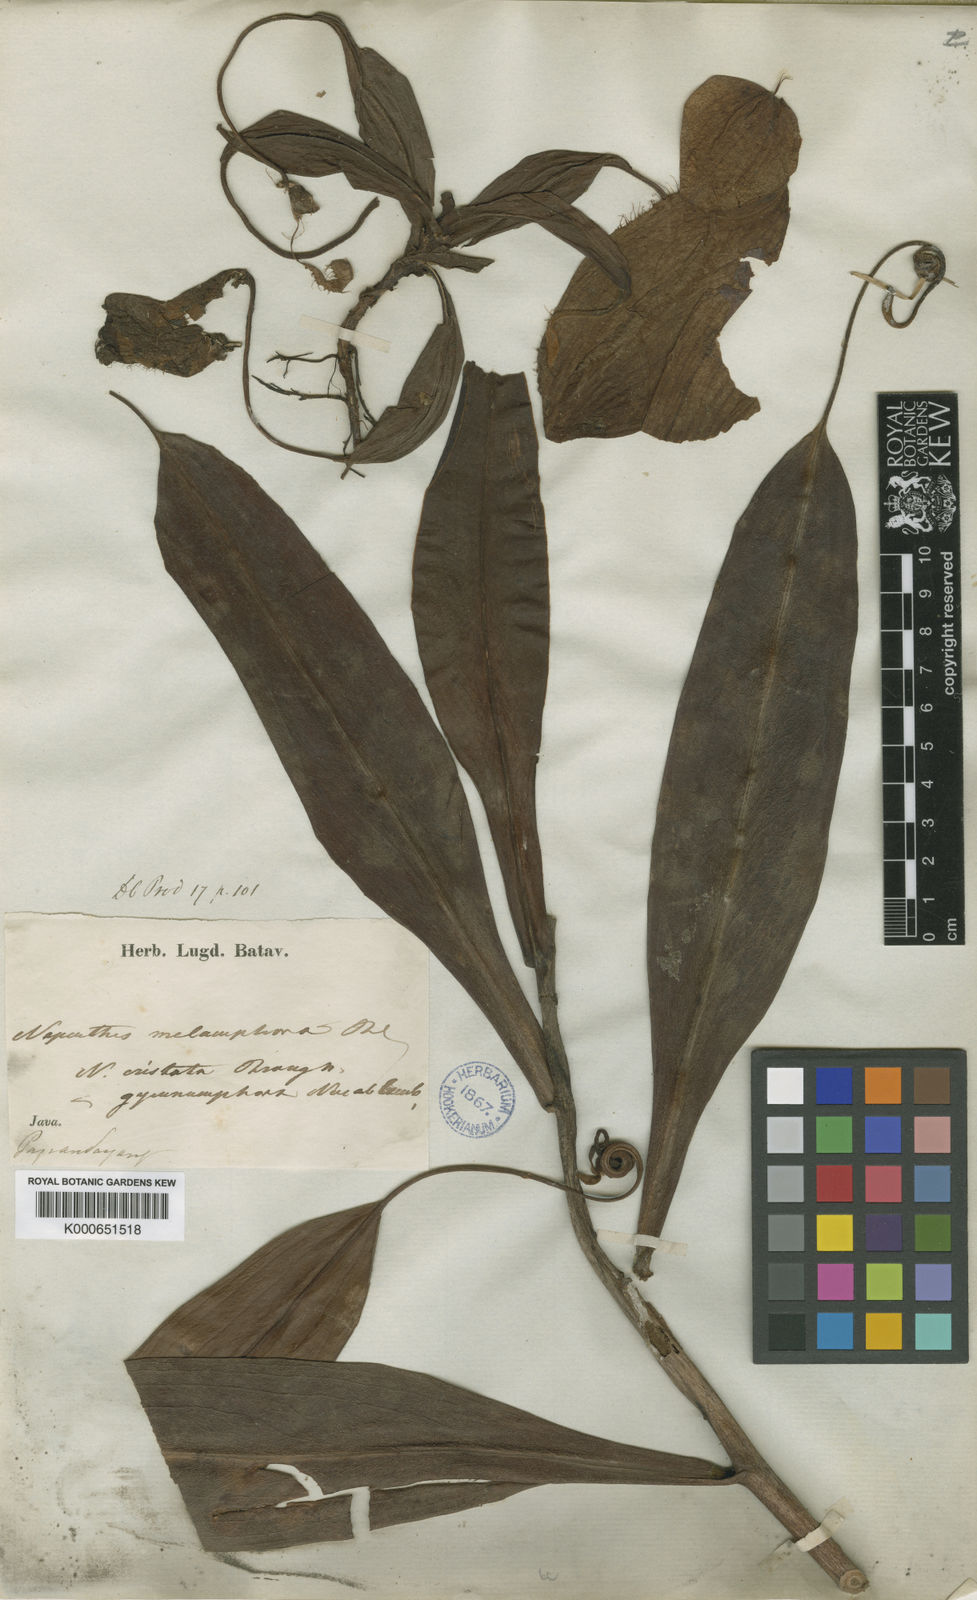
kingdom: Plantae
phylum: Tracheophyta
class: Magnoliopsida
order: Caryophyllales
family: Nepenthaceae
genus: Nepenthes
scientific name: Nepenthes gymnamphora
